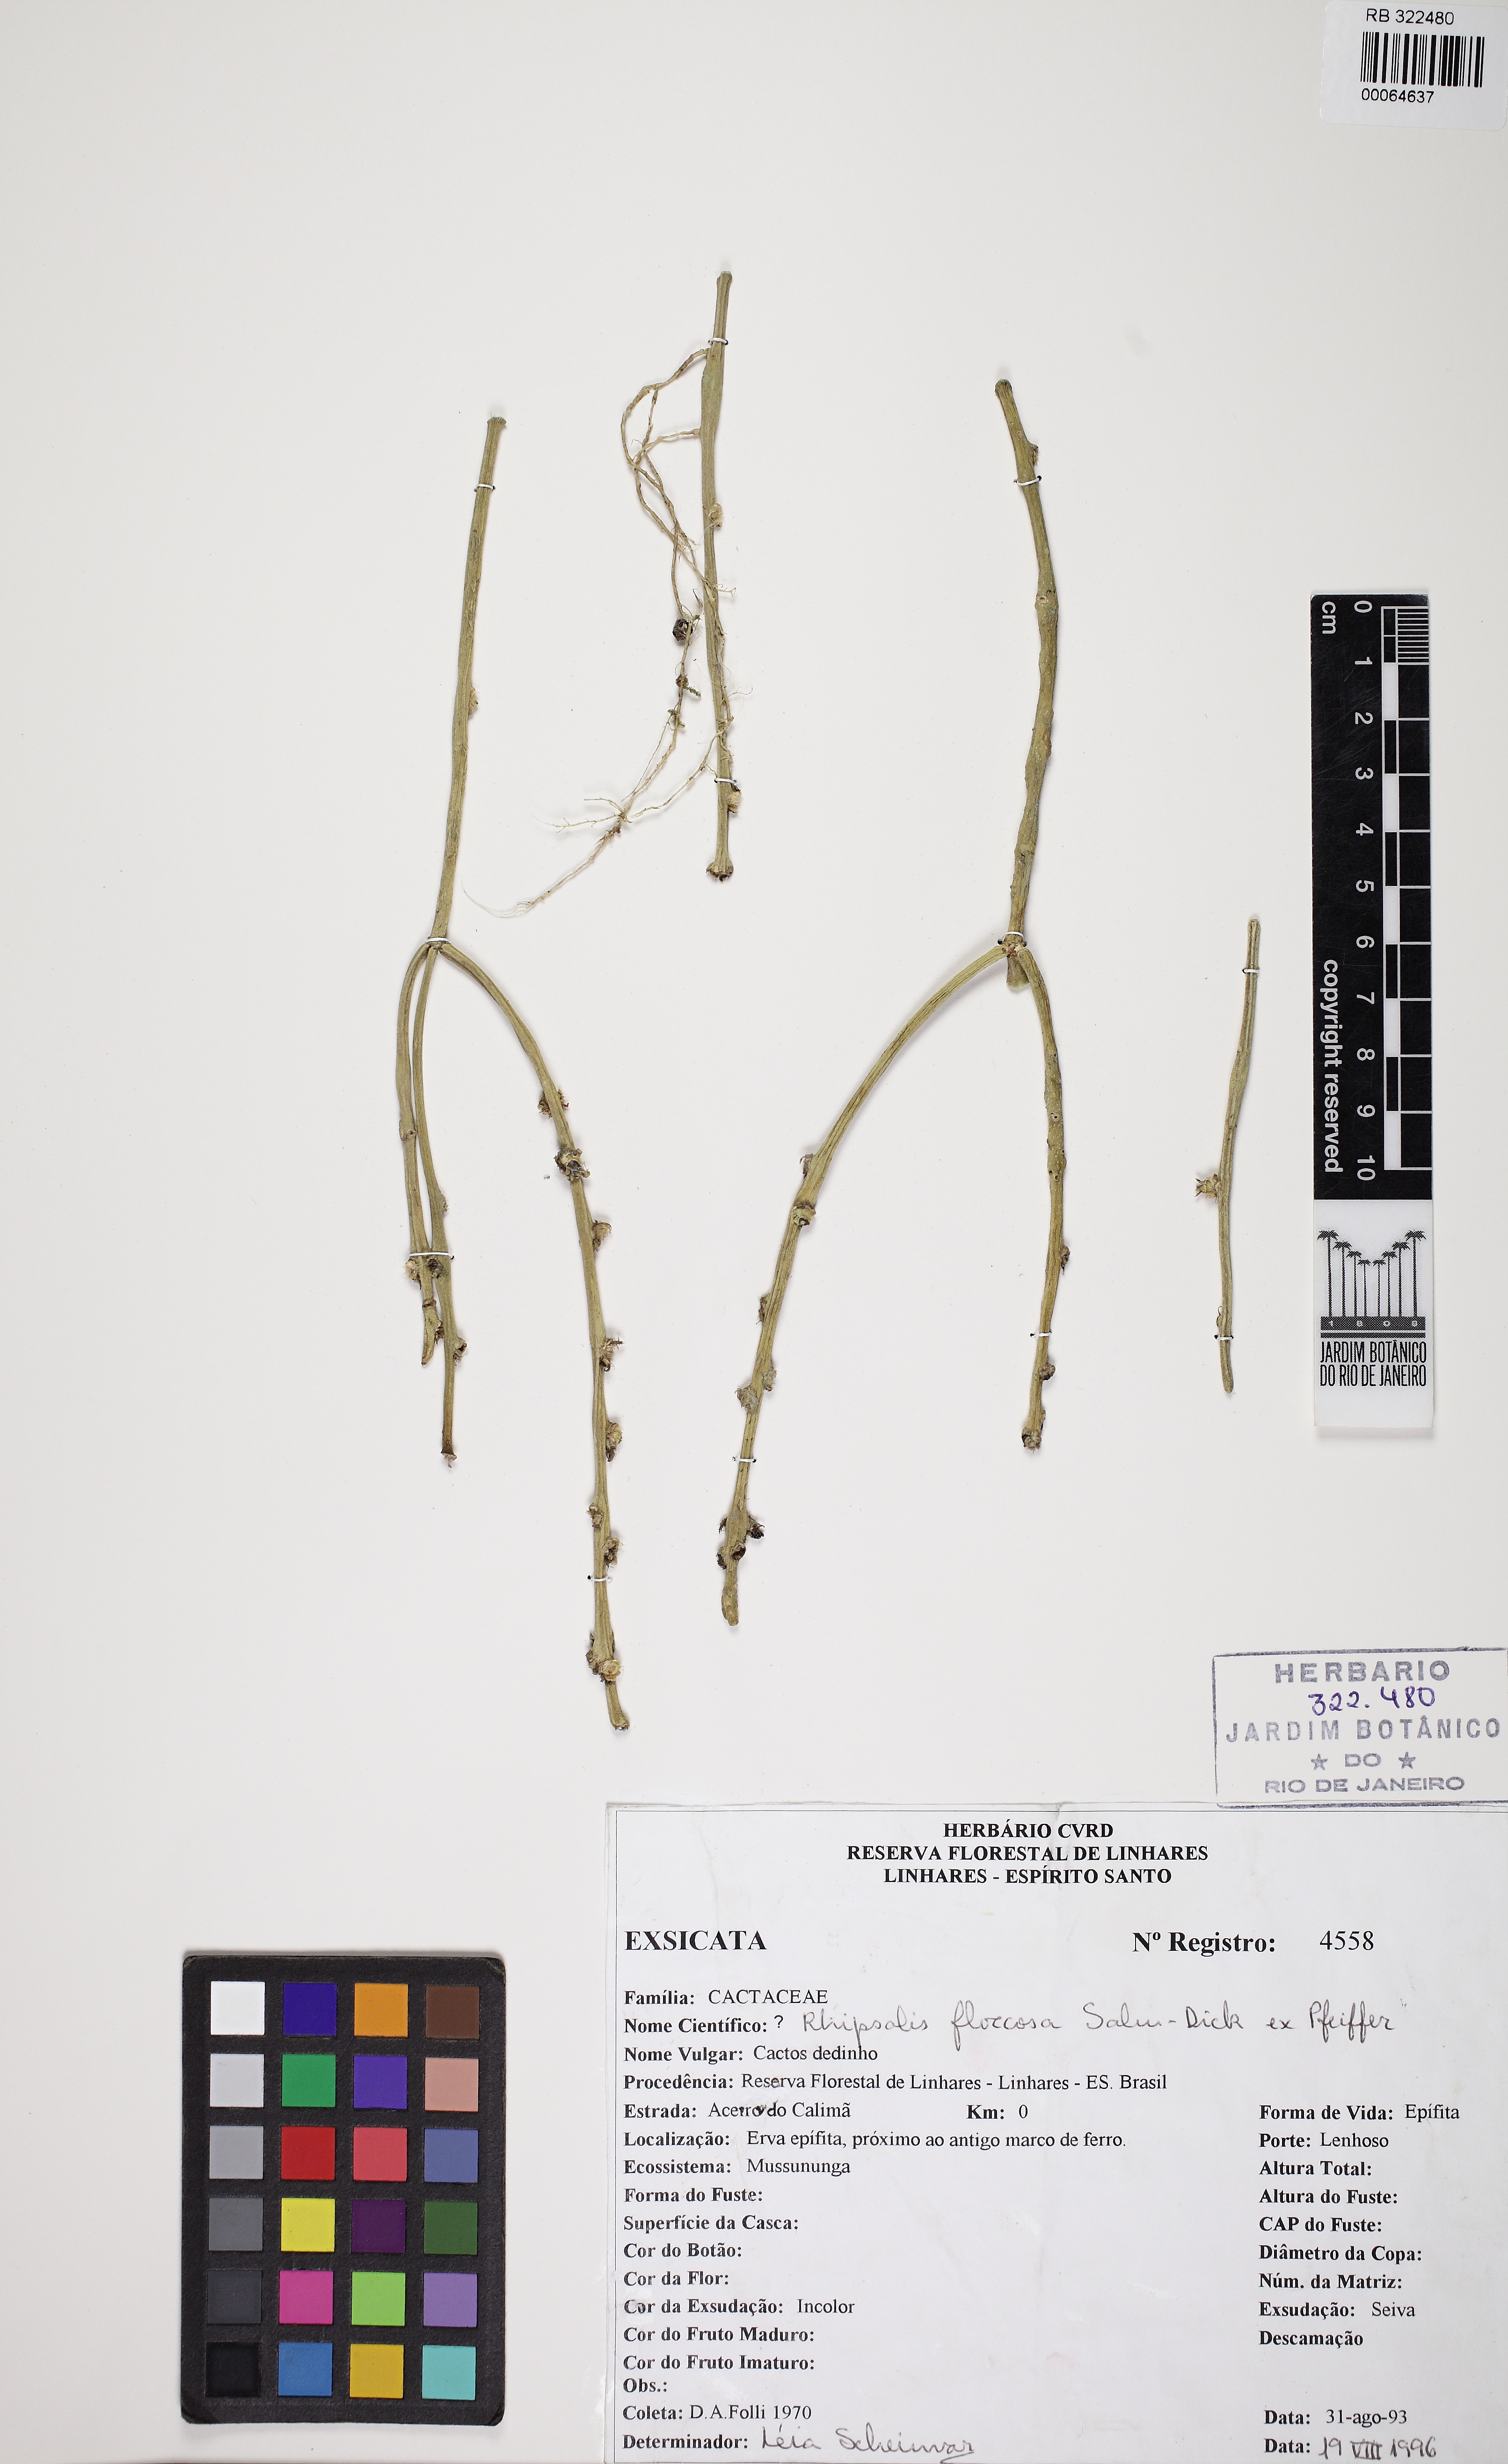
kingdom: Plantae
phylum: Tracheophyta
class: Magnoliopsida
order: Caryophyllales
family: Cactaceae
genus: Rhipsalis
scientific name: Rhipsalis floccosa
